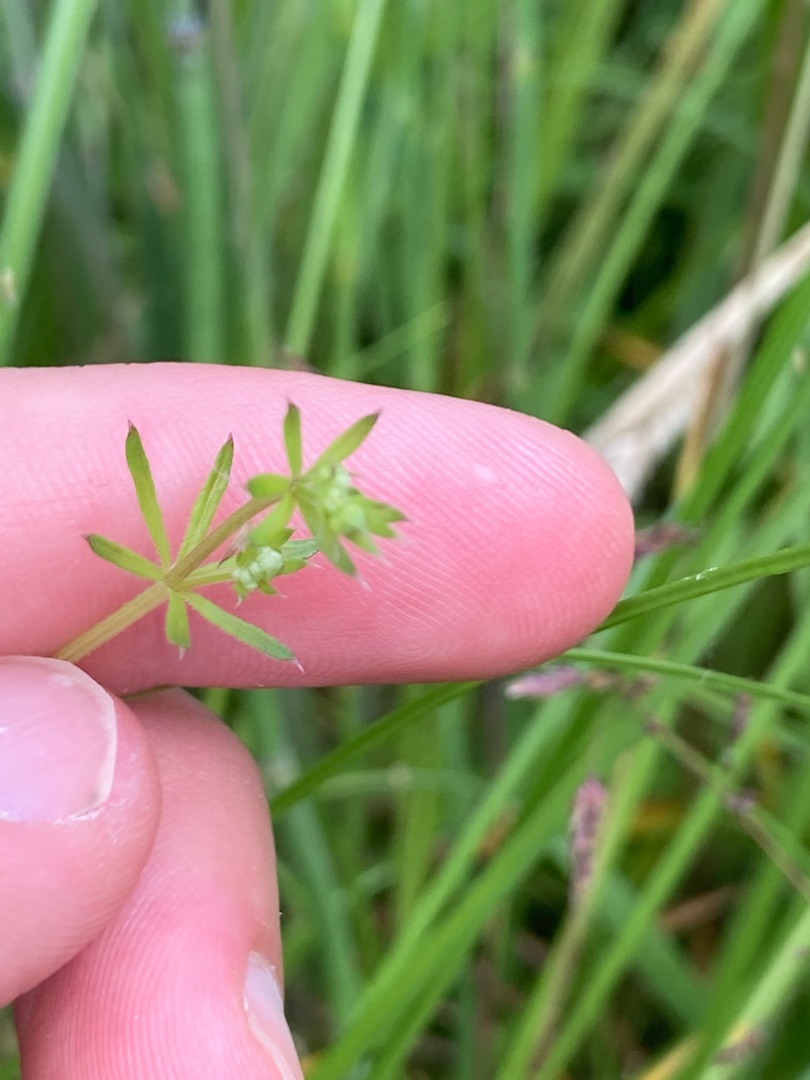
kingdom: Plantae
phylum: Tracheophyta
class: Magnoliopsida
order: Gentianales
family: Rubiaceae
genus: Galium
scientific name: Galium uliginosum
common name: Sump-snerre
